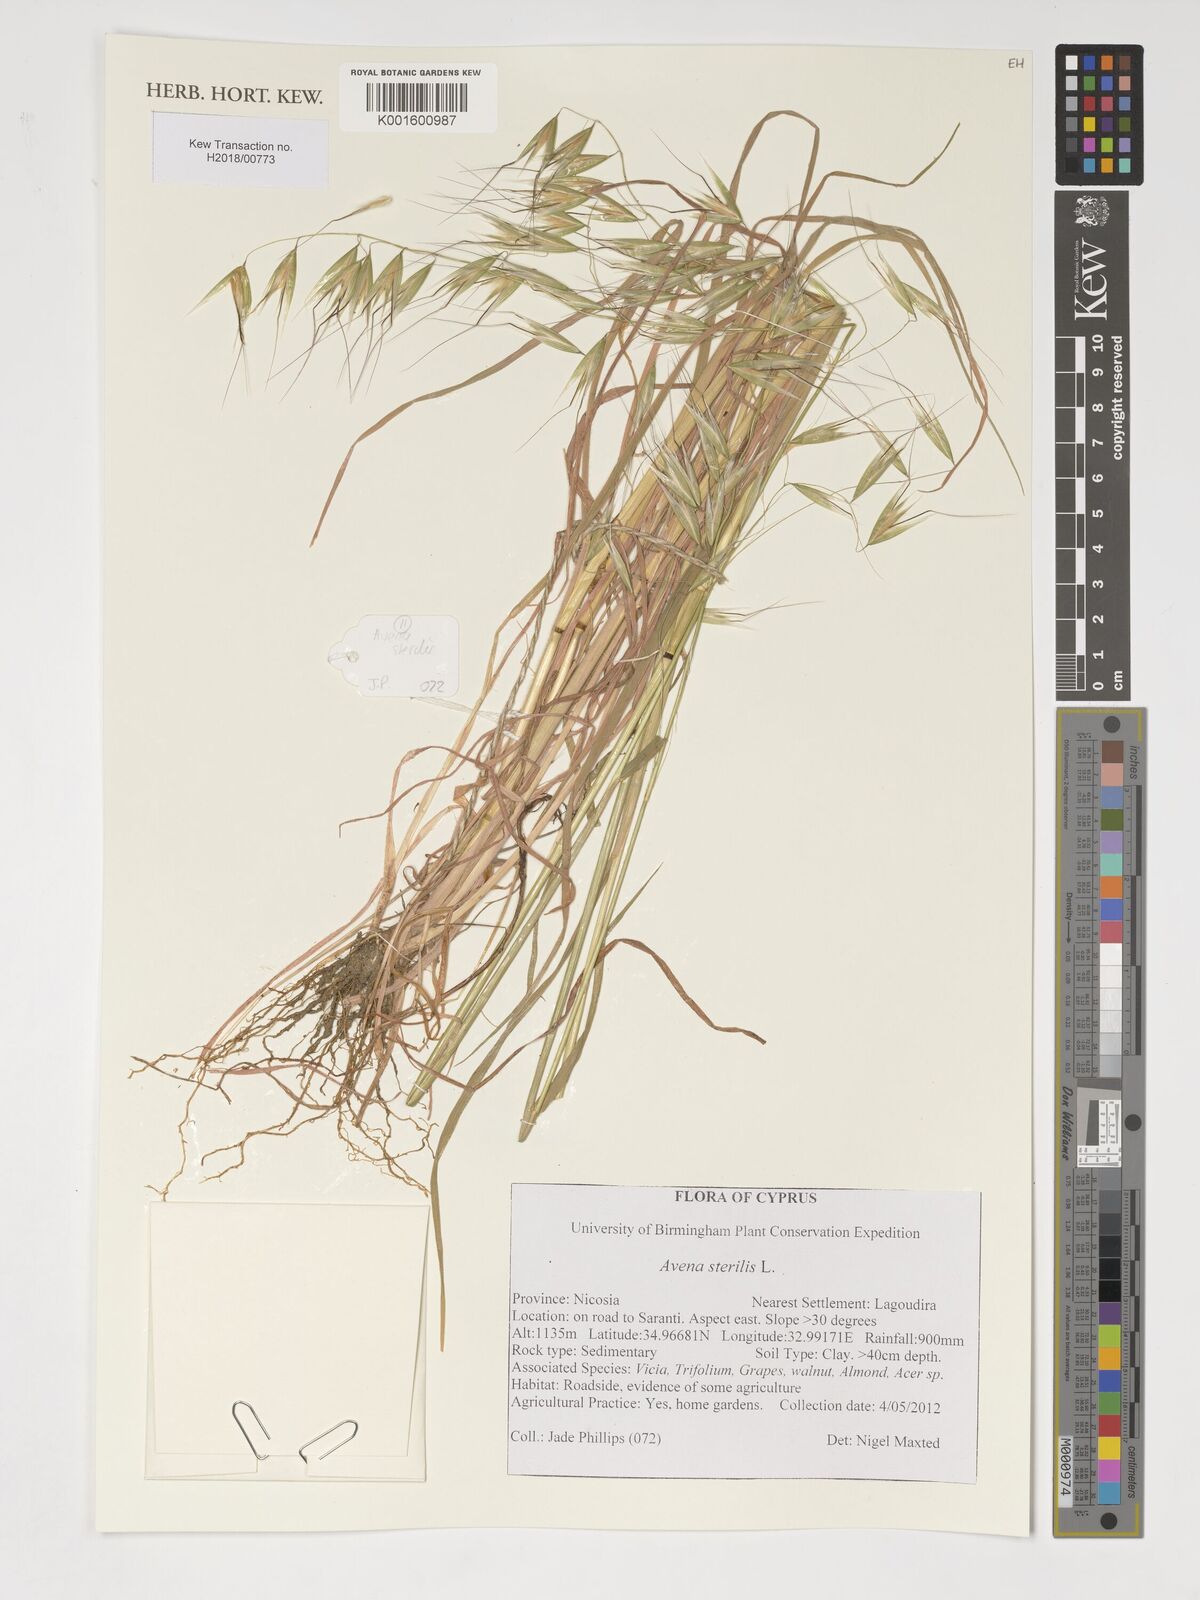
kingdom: Plantae
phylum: Tracheophyta
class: Liliopsida
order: Poales
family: Poaceae
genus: Avena
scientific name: Avena sterilis
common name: Animated oat
